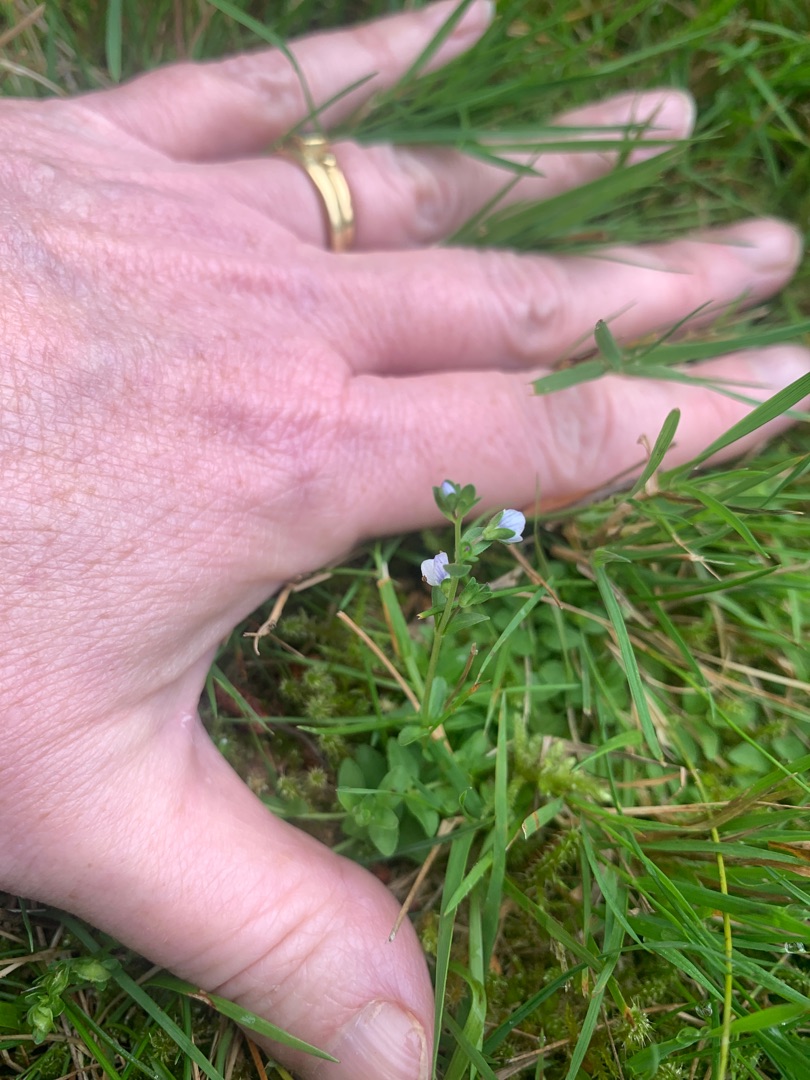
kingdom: Plantae
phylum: Tracheophyta
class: Magnoliopsida
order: Lamiales
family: Plantaginaceae
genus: Veronica
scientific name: Veronica serpyllifolia
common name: Glat ærenpris
